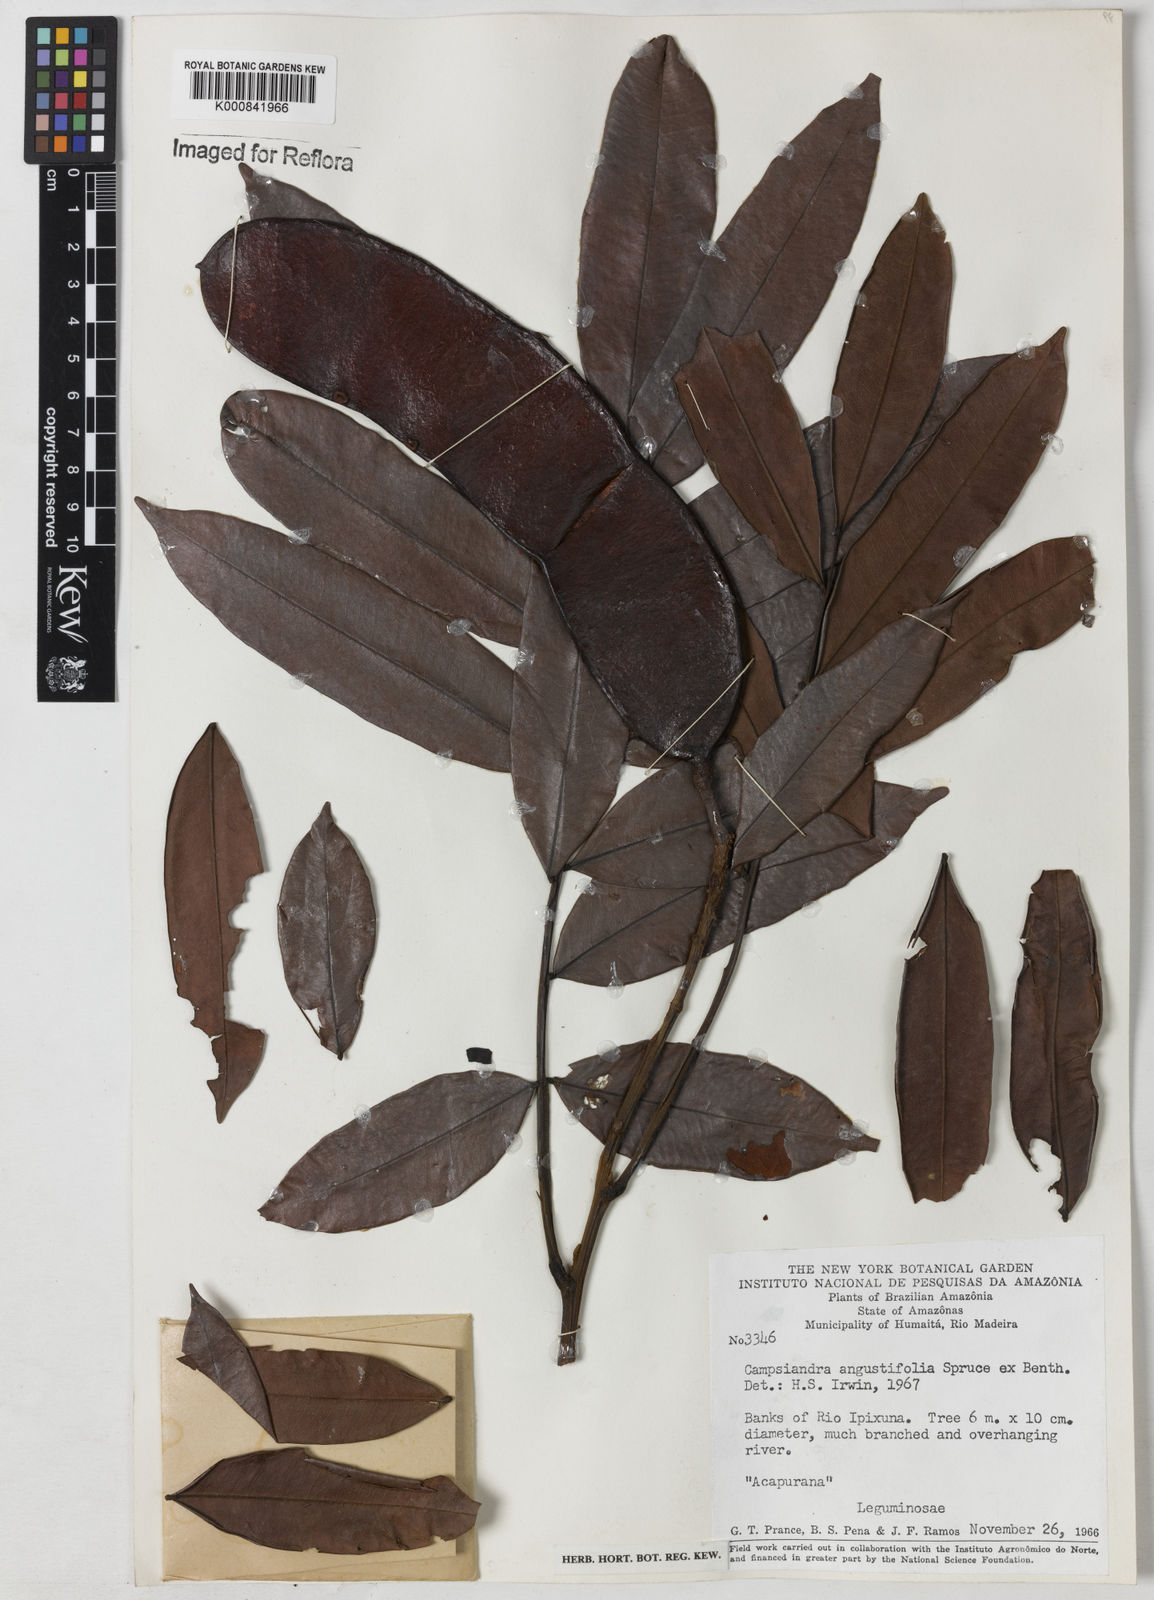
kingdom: Plantae
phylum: Tracheophyta
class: Magnoliopsida
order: Fabales
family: Fabaceae
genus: Campsiandra
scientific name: Campsiandra
